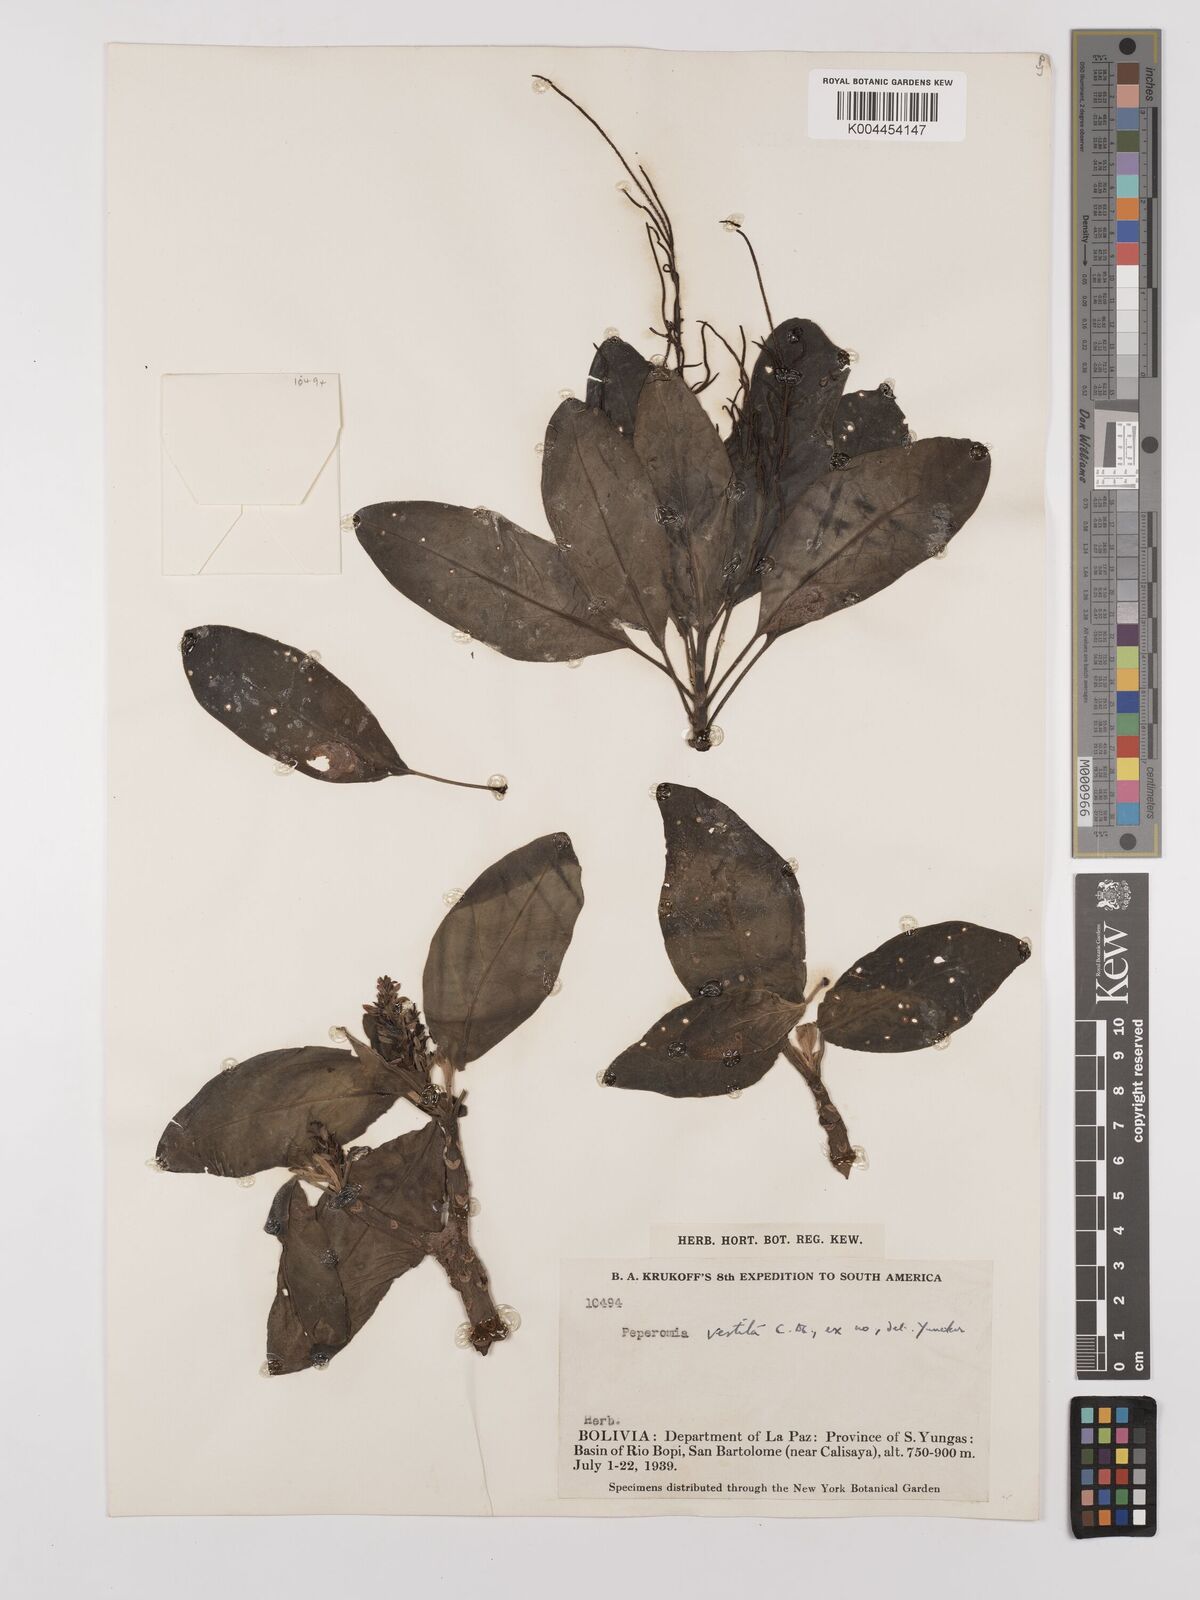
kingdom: Plantae
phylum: Tracheophyta
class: Magnoliopsida
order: Piperales
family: Piperaceae
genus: Peperomia
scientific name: Peperomia vestita
